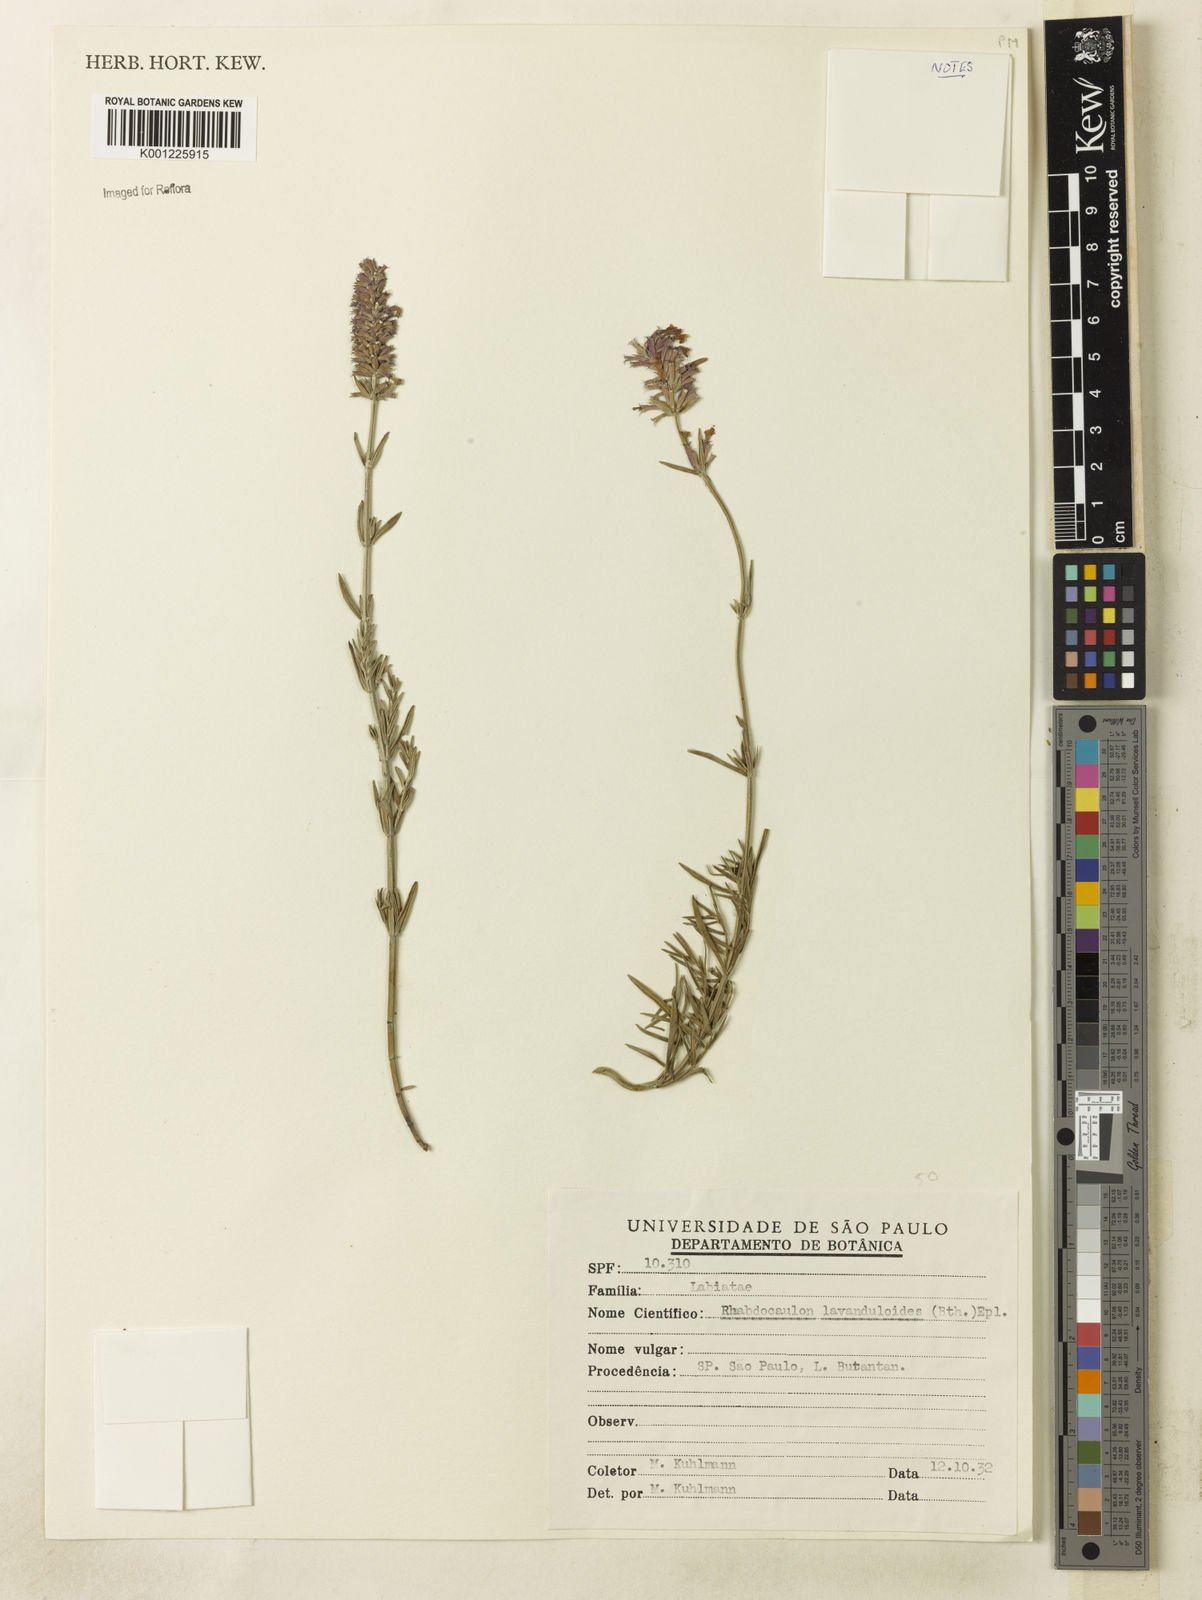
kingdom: Plantae
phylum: Tracheophyta
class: Magnoliopsida
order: Lamiales
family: Lamiaceae
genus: Rhabdocaulon
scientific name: Rhabdocaulon lavanduloides
